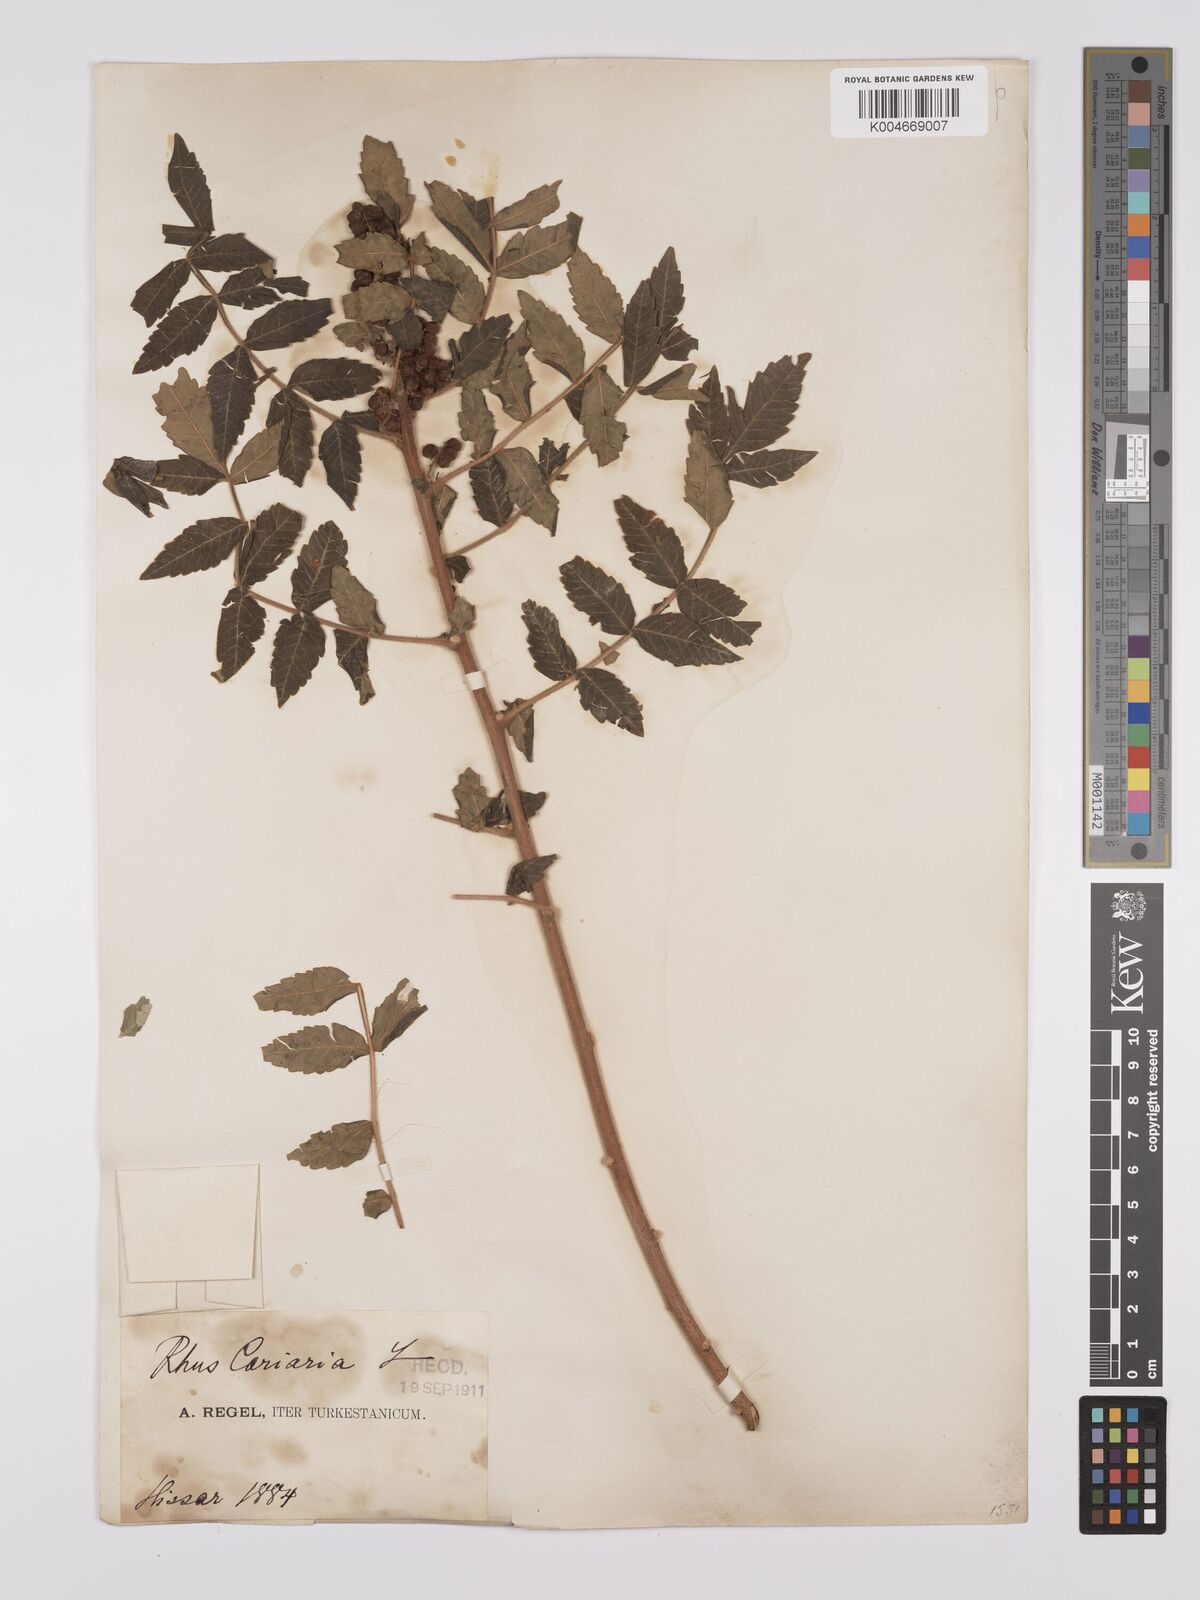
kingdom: Plantae
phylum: Tracheophyta
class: Magnoliopsida
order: Sapindales
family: Anacardiaceae
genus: Rhus
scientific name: Rhus coriaria
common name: Tanner's sumach
